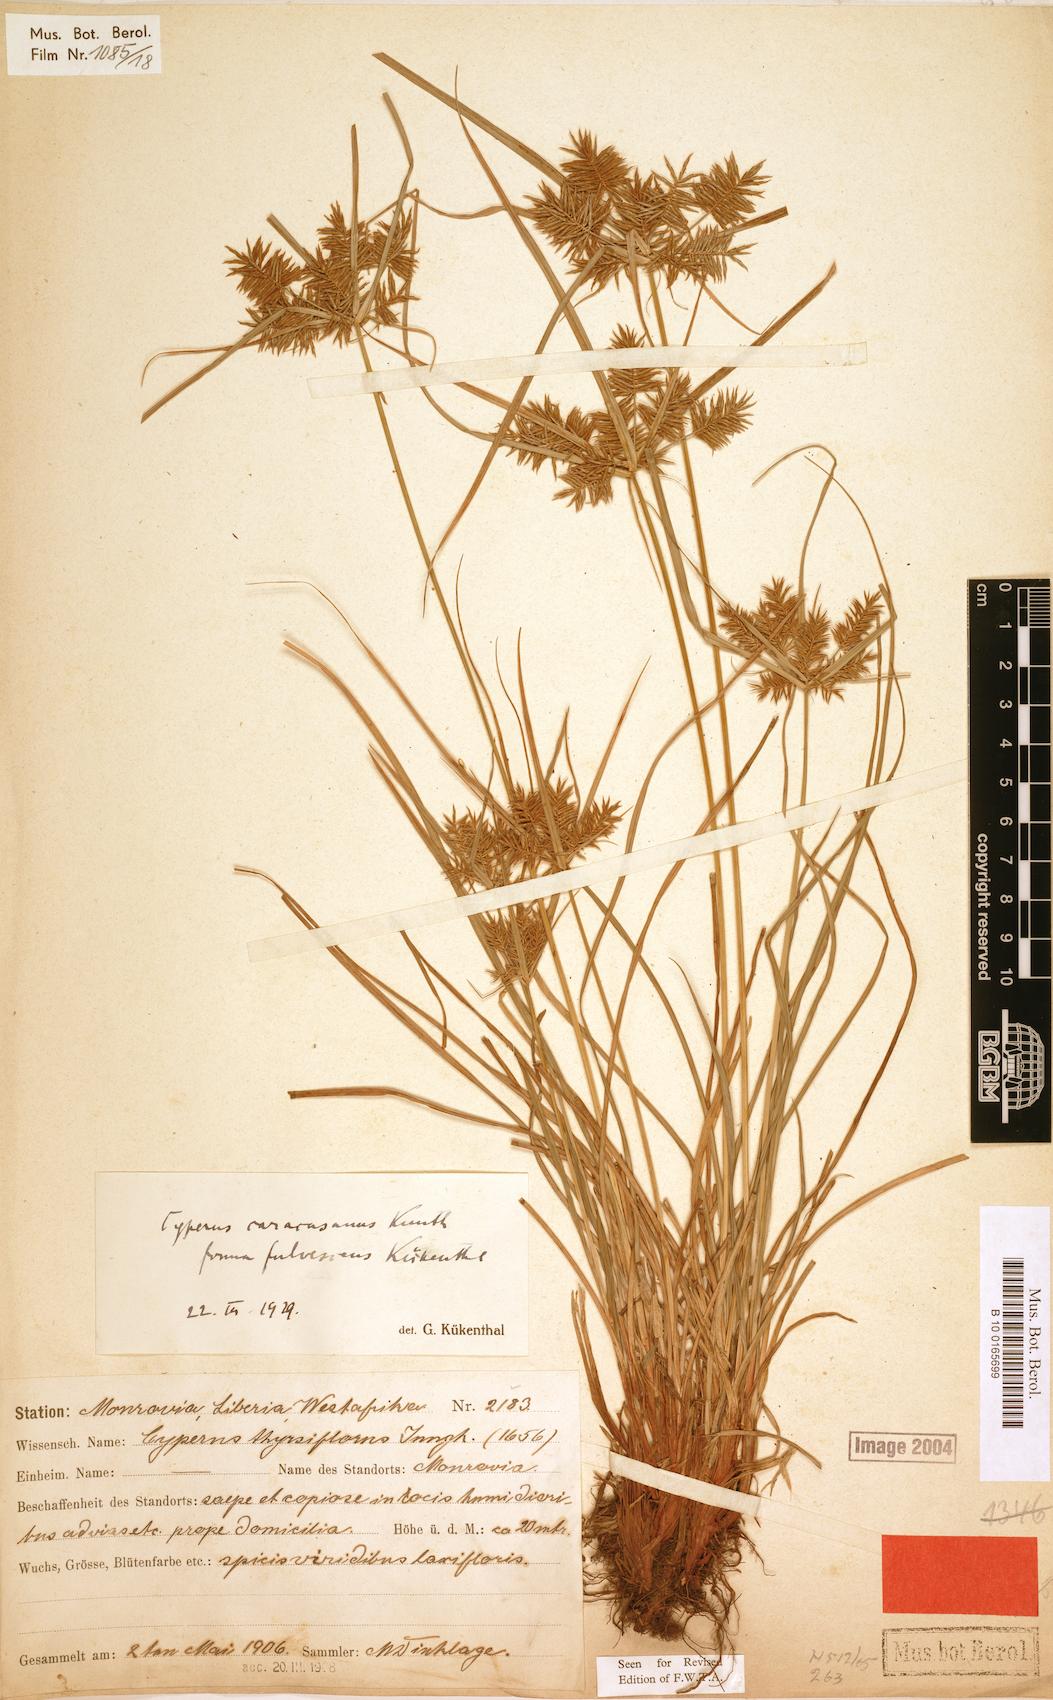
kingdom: Plantae
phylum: Tracheophyta
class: Liliopsida
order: Poales
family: Cyperaceae
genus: Cyperus
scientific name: Cyperus tenuis
